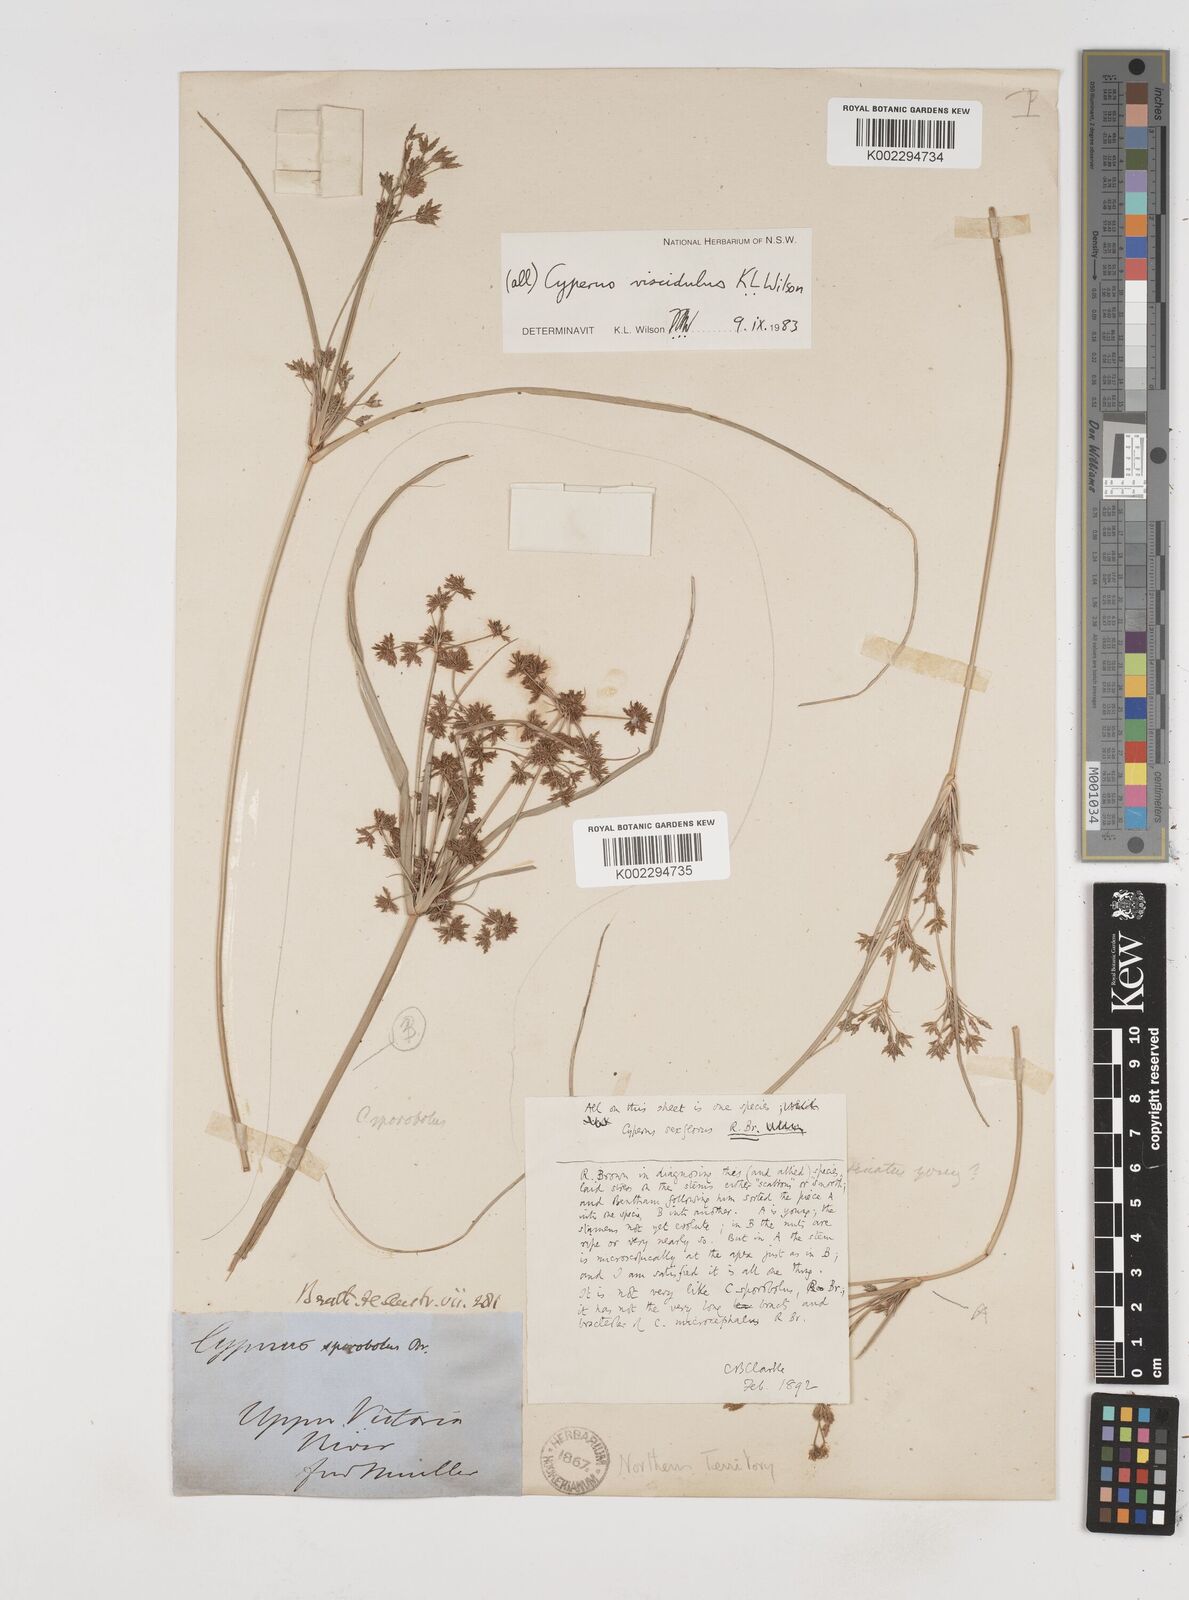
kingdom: Plantae
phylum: Tracheophyta
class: Liliopsida
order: Poales
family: Cyperaceae
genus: Cyperus
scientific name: Cyperus viscidulus
